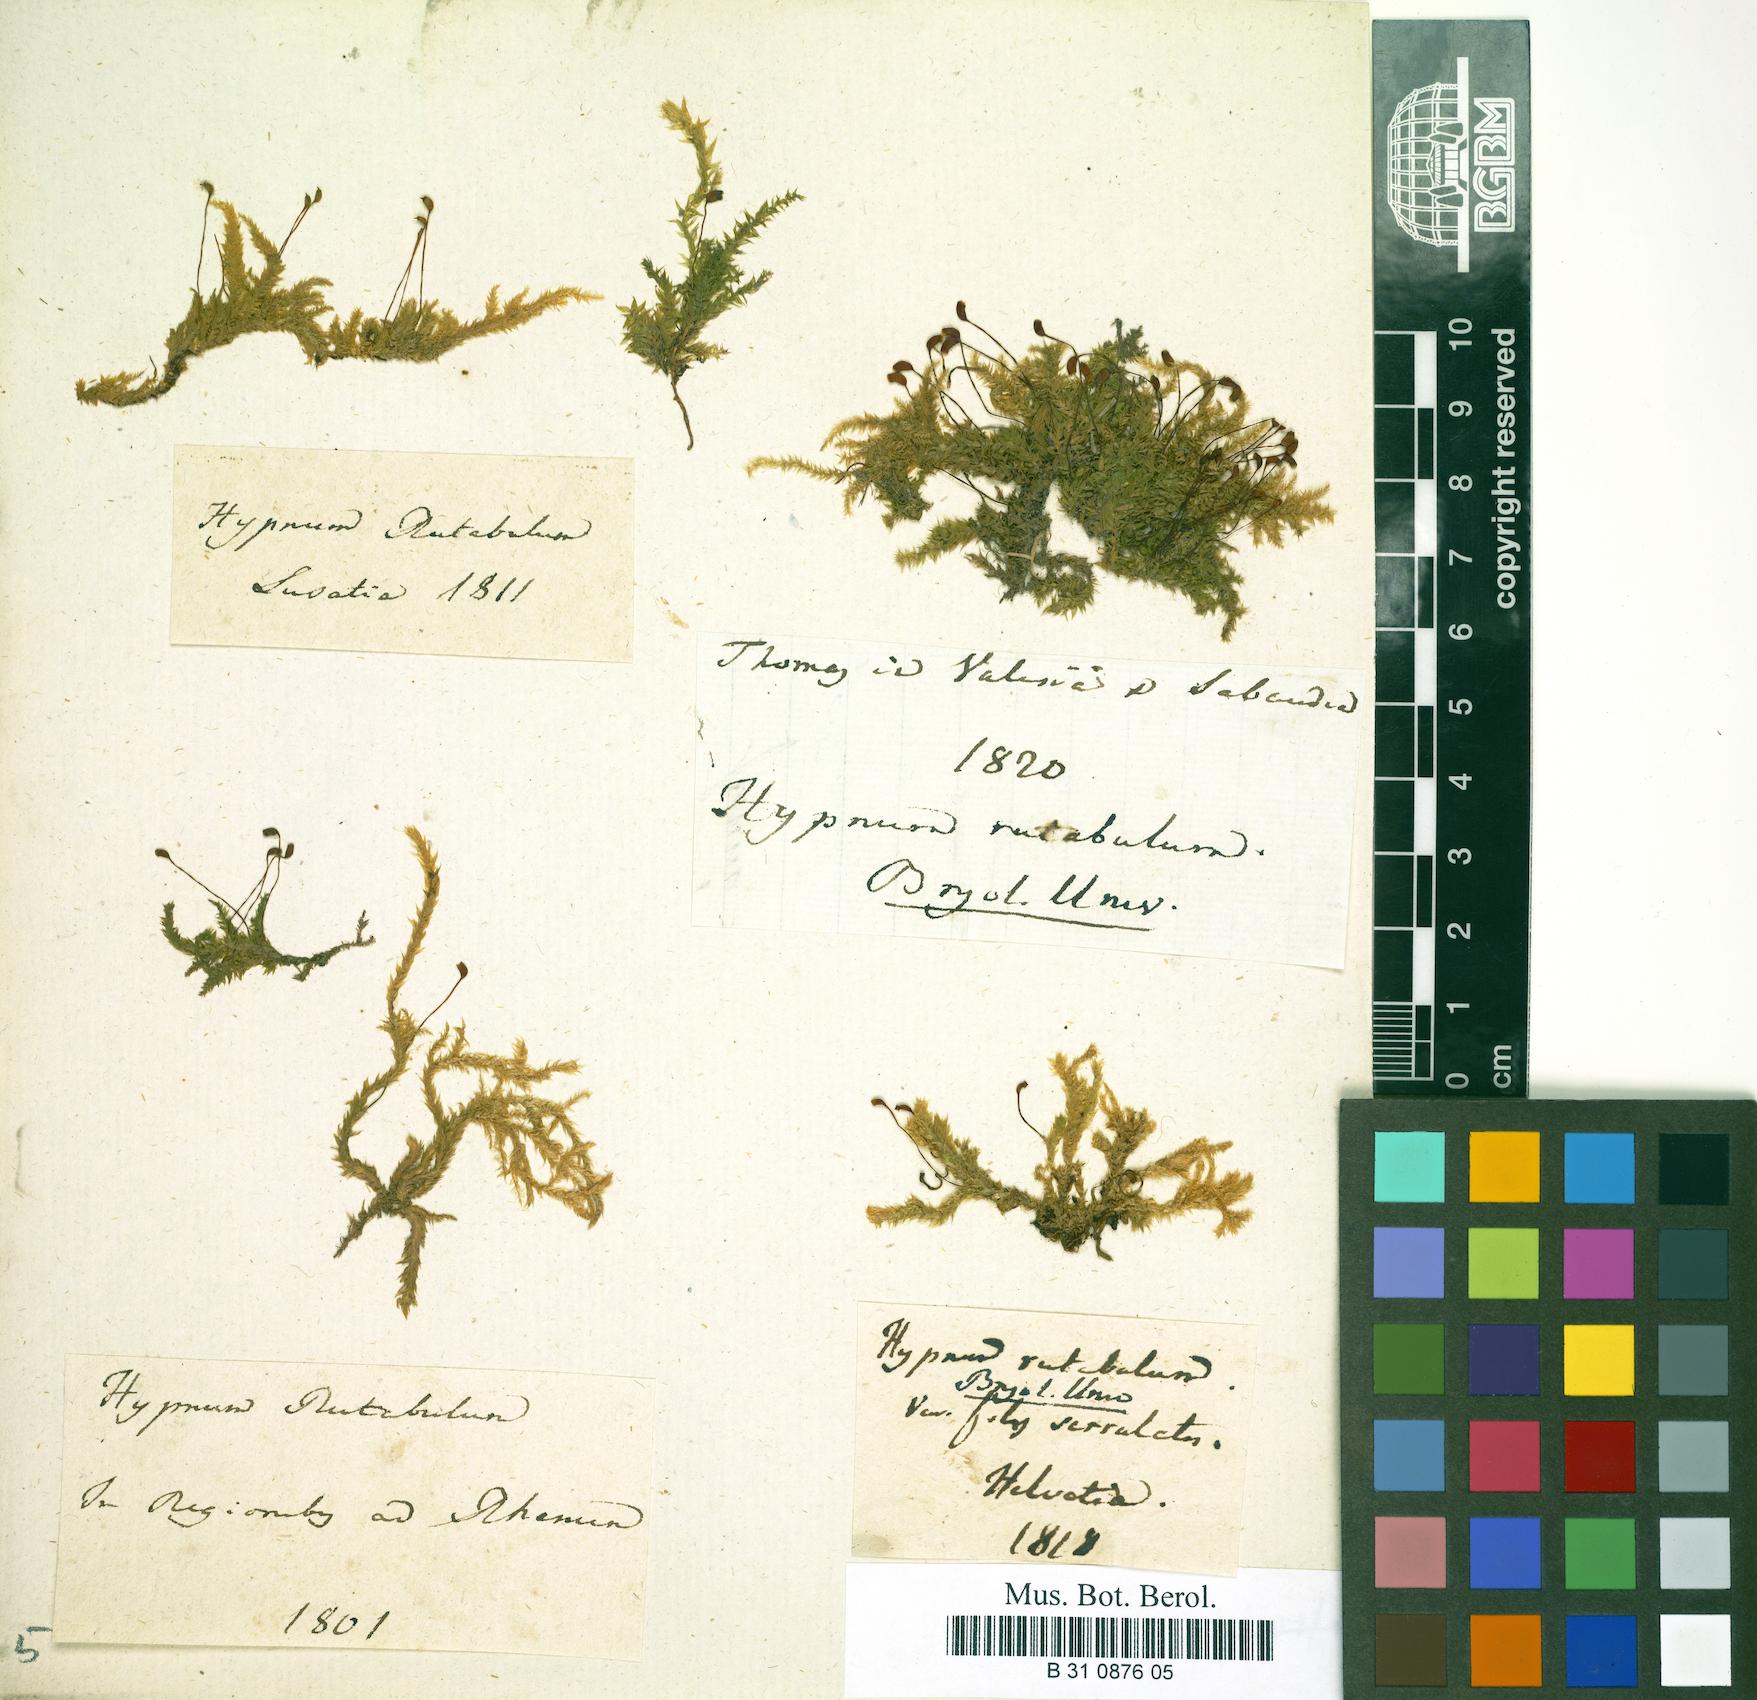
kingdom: Plantae
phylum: Bryophyta
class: Bryopsida
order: Hypnales
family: Brachytheciaceae
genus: Brachythecium
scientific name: Brachythecium rutabulum
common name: Rough-stalked feather-moss
